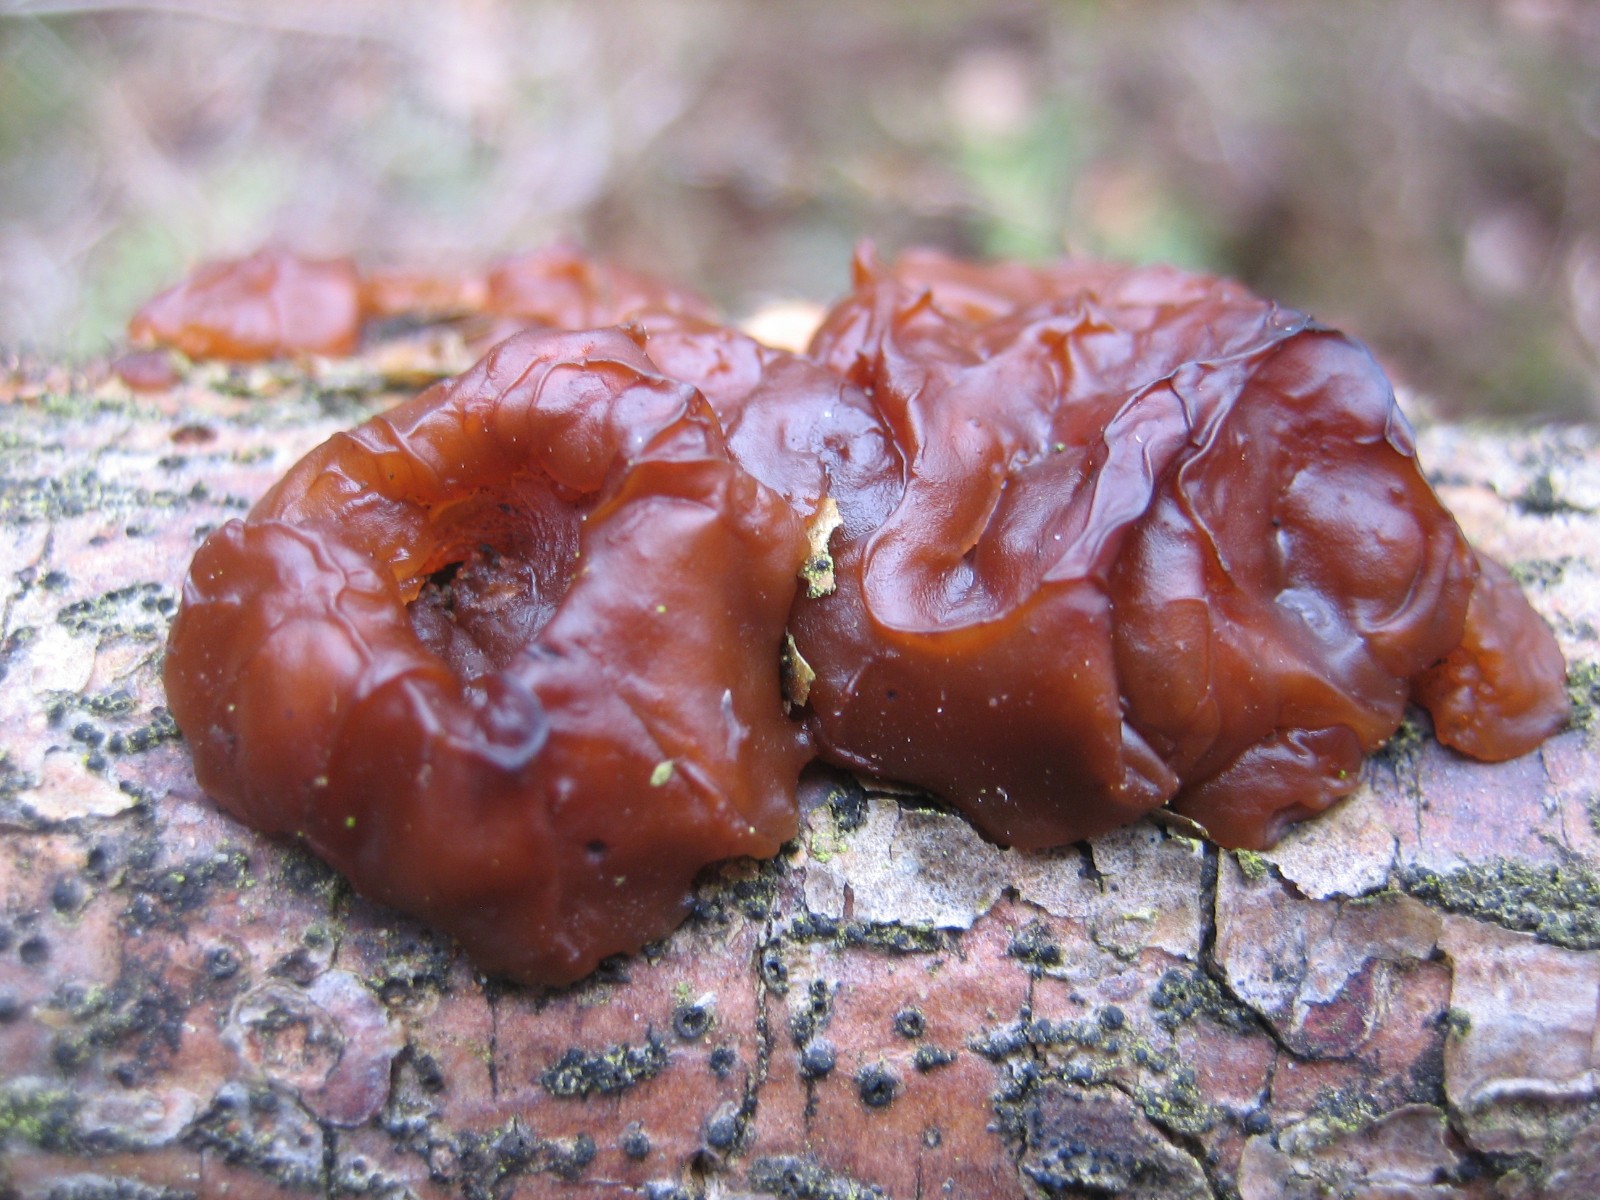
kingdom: Fungi
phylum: Basidiomycota
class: Agaricomycetes
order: Auriculariales
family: Auriculariaceae
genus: Exidia
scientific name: Exidia saccharina
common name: kandis-bævretop
